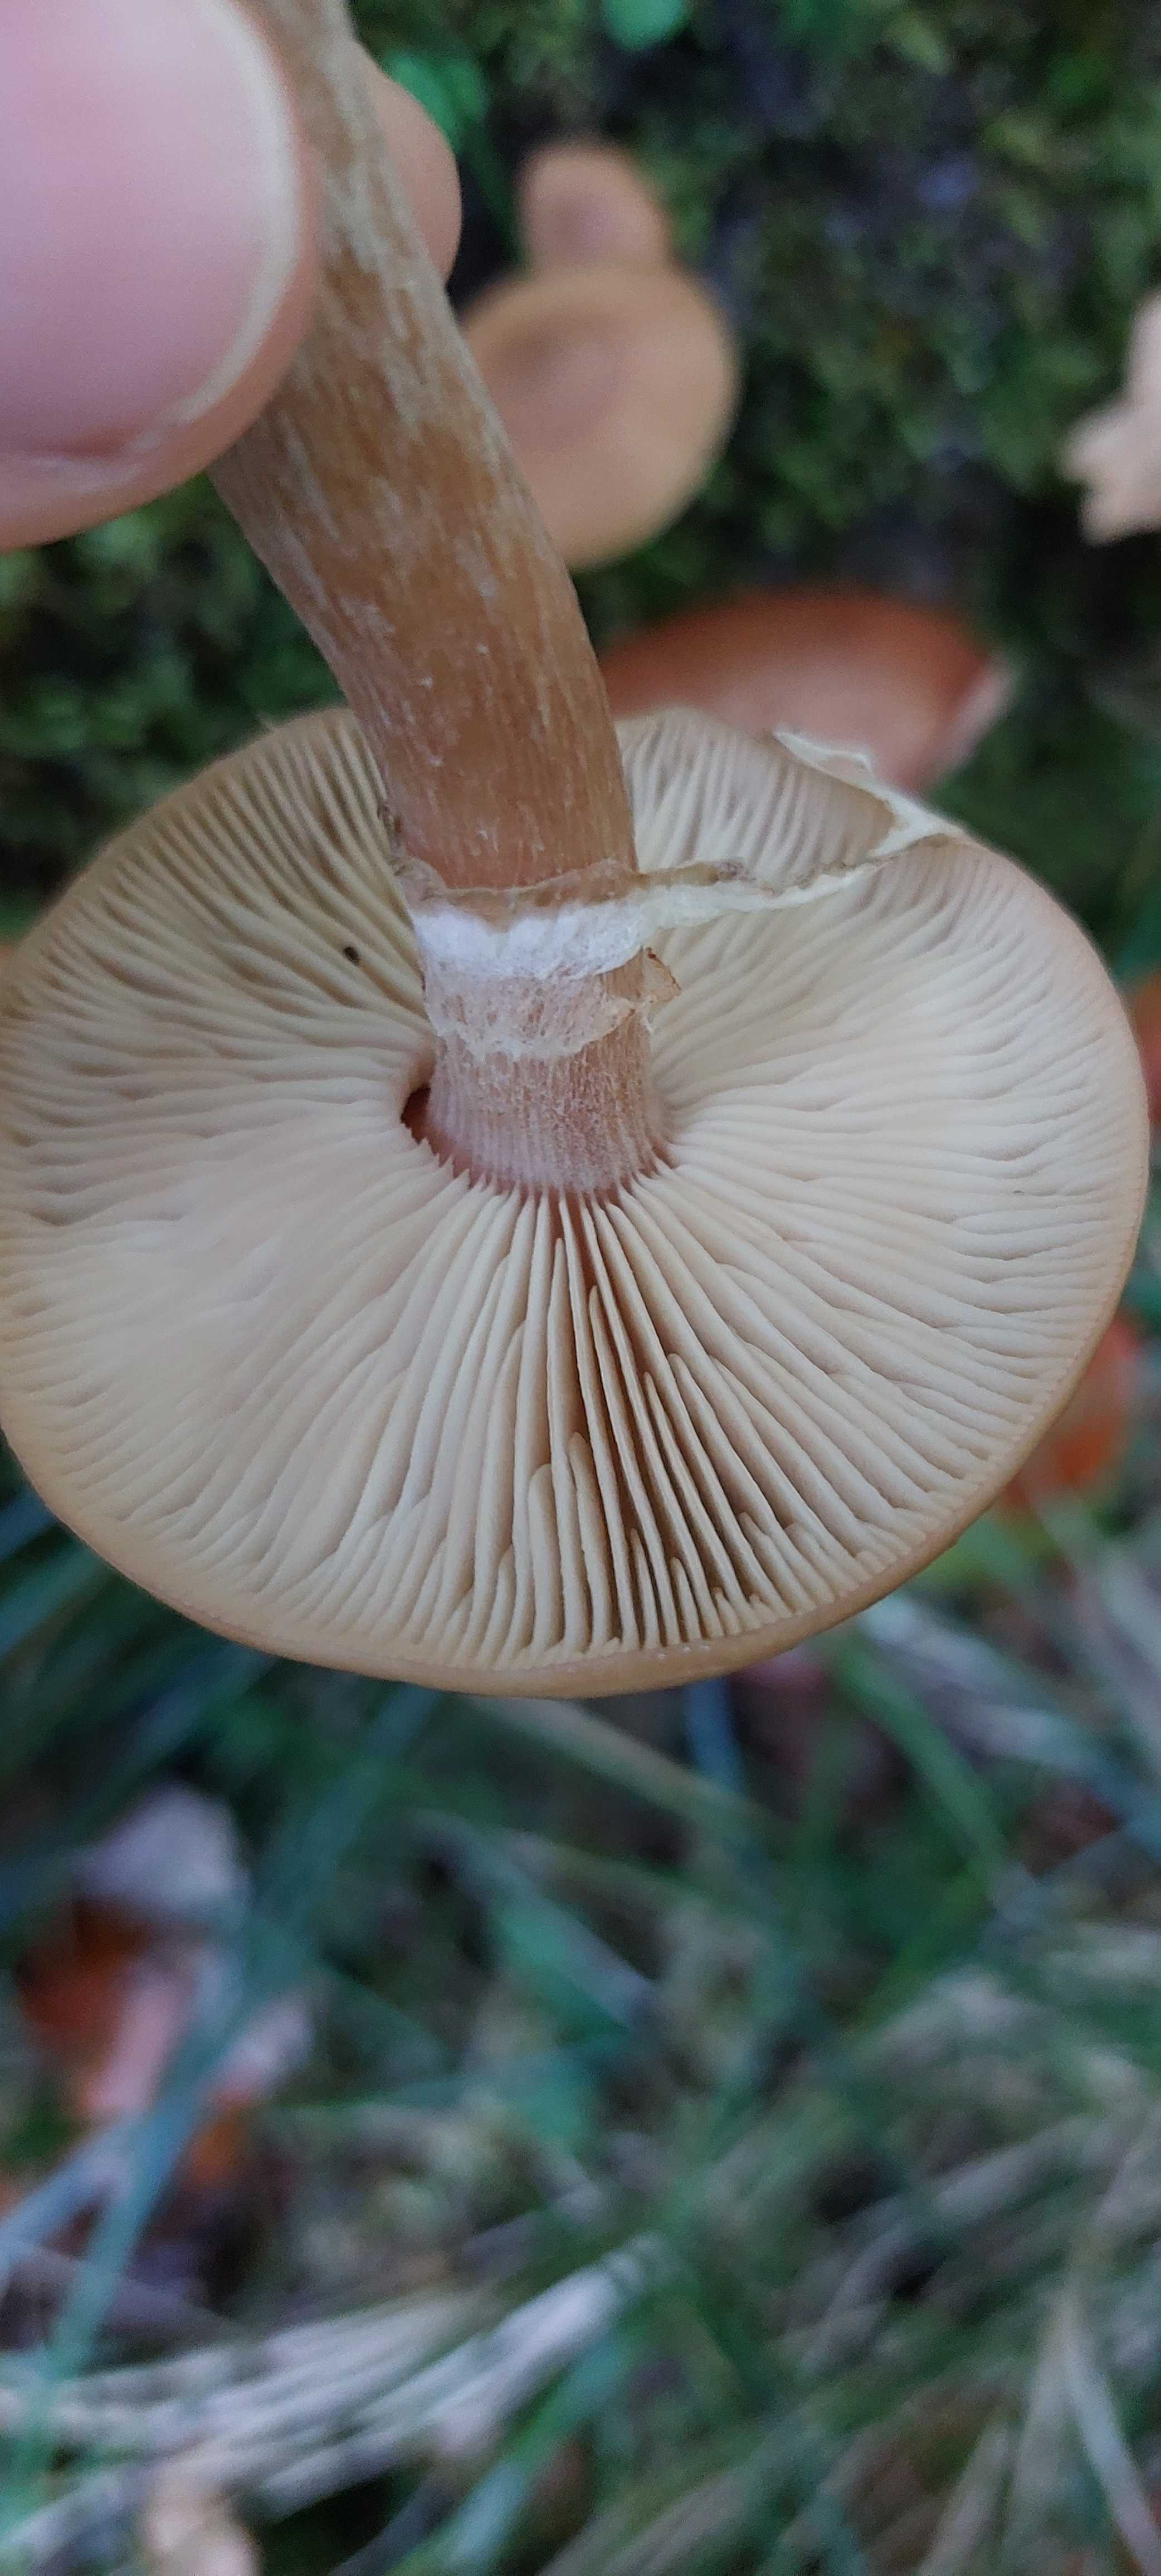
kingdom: Fungi
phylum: Basidiomycota
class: Agaricomycetes
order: Agaricales
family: Physalacriaceae
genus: Armillaria
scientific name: Armillaria
